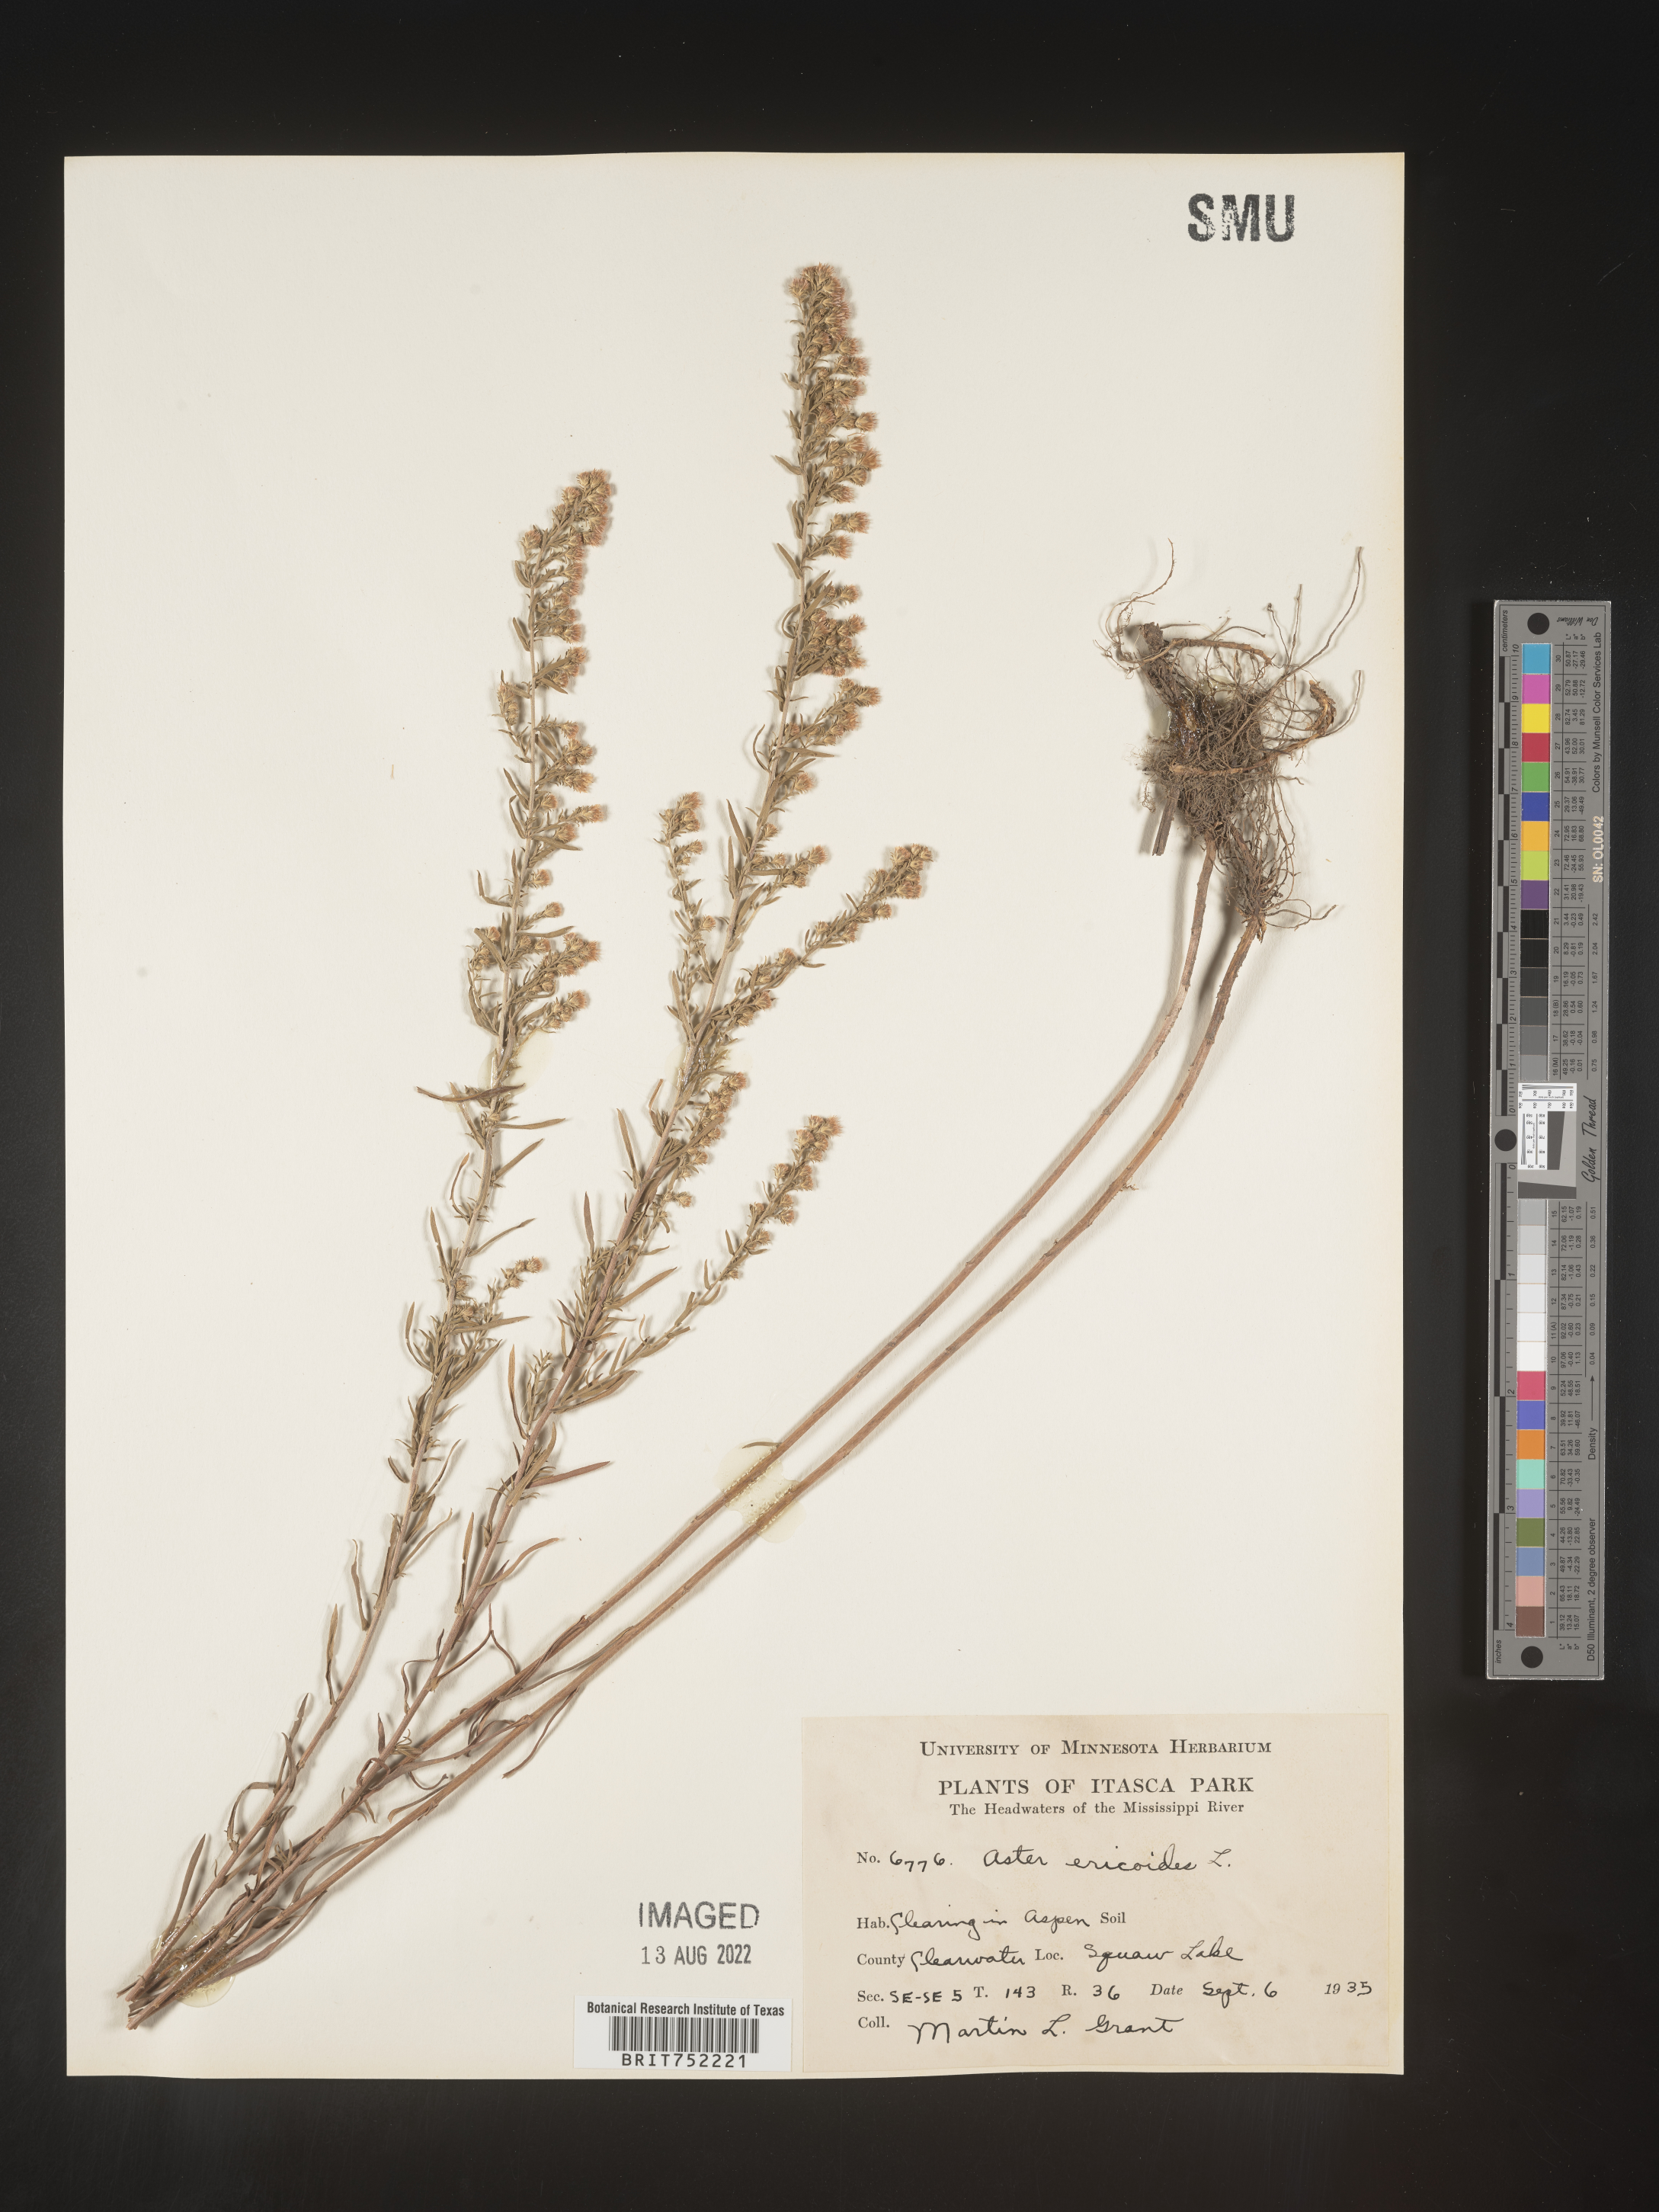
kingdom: Plantae
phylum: Tracheophyta
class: Magnoliopsida
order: Asterales
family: Asteraceae
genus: Symphyotrichum
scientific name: Symphyotrichum ericoides
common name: Heath aster
